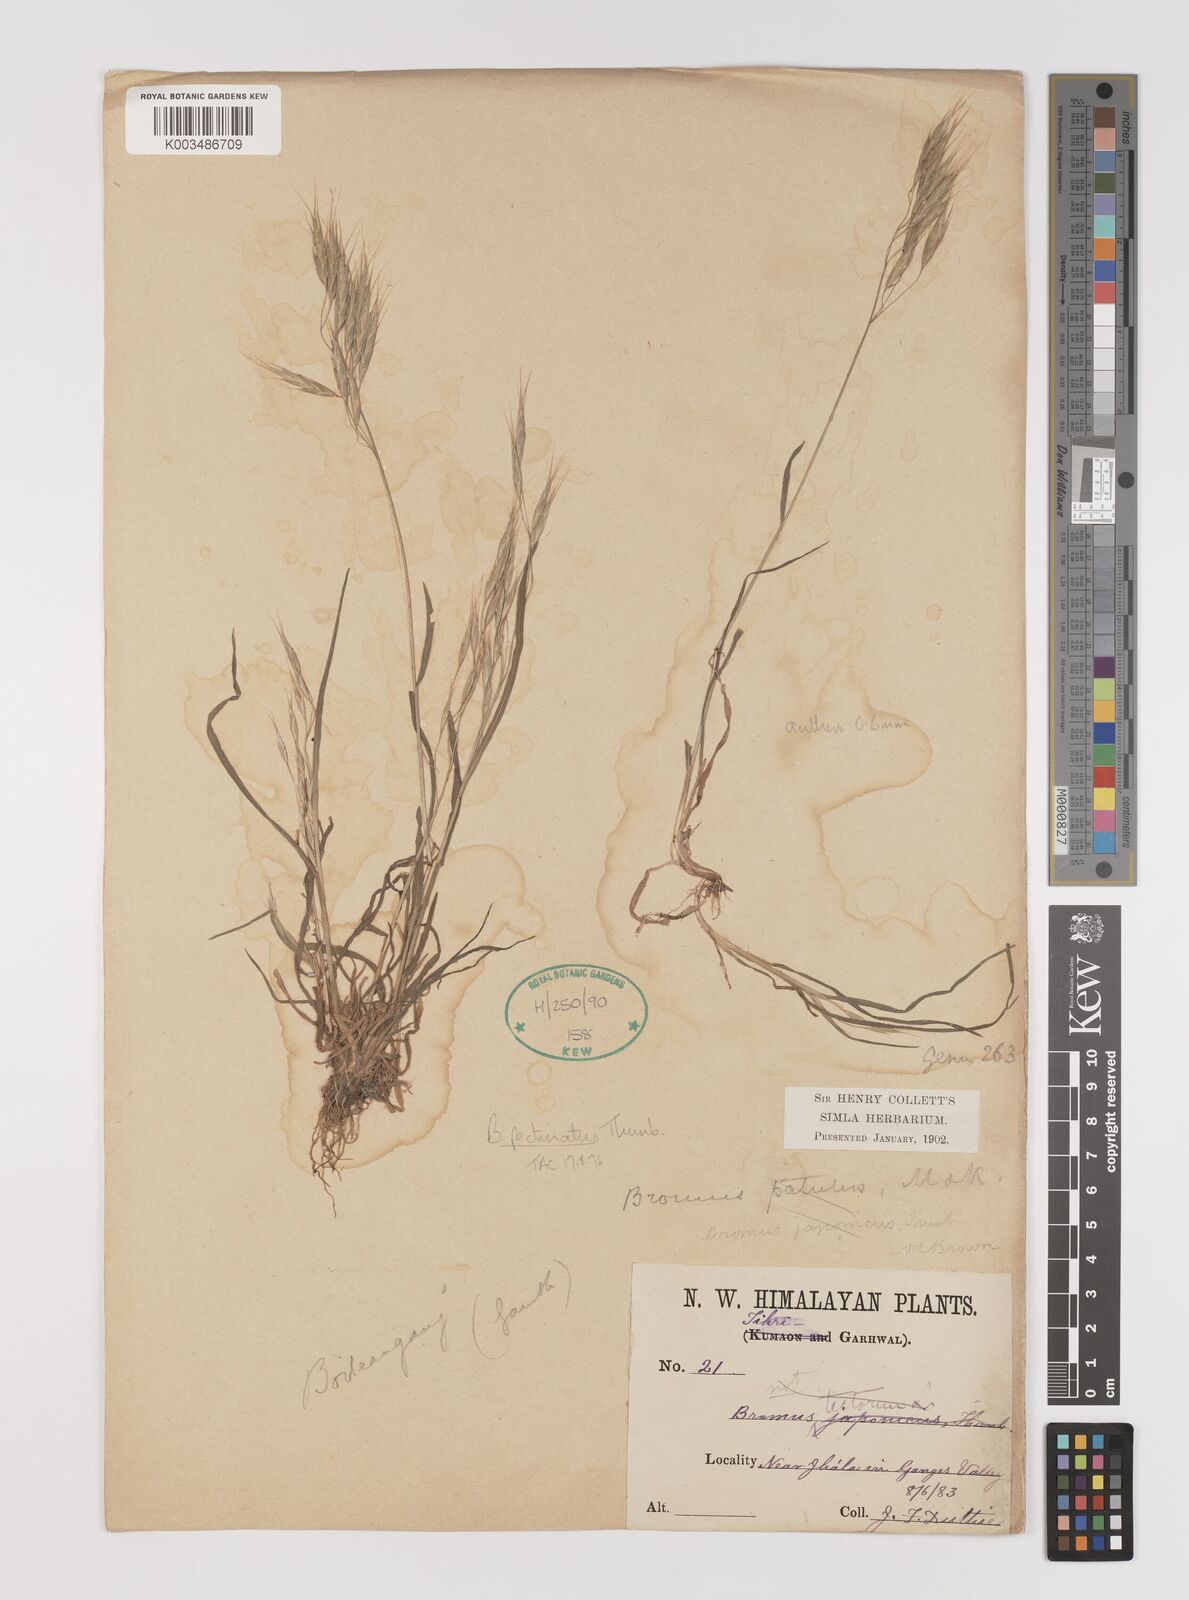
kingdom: Plantae
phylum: Tracheophyta
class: Liliopsida
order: Poales
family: Poaceae
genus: Bromus
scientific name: Bromus pectinatus
